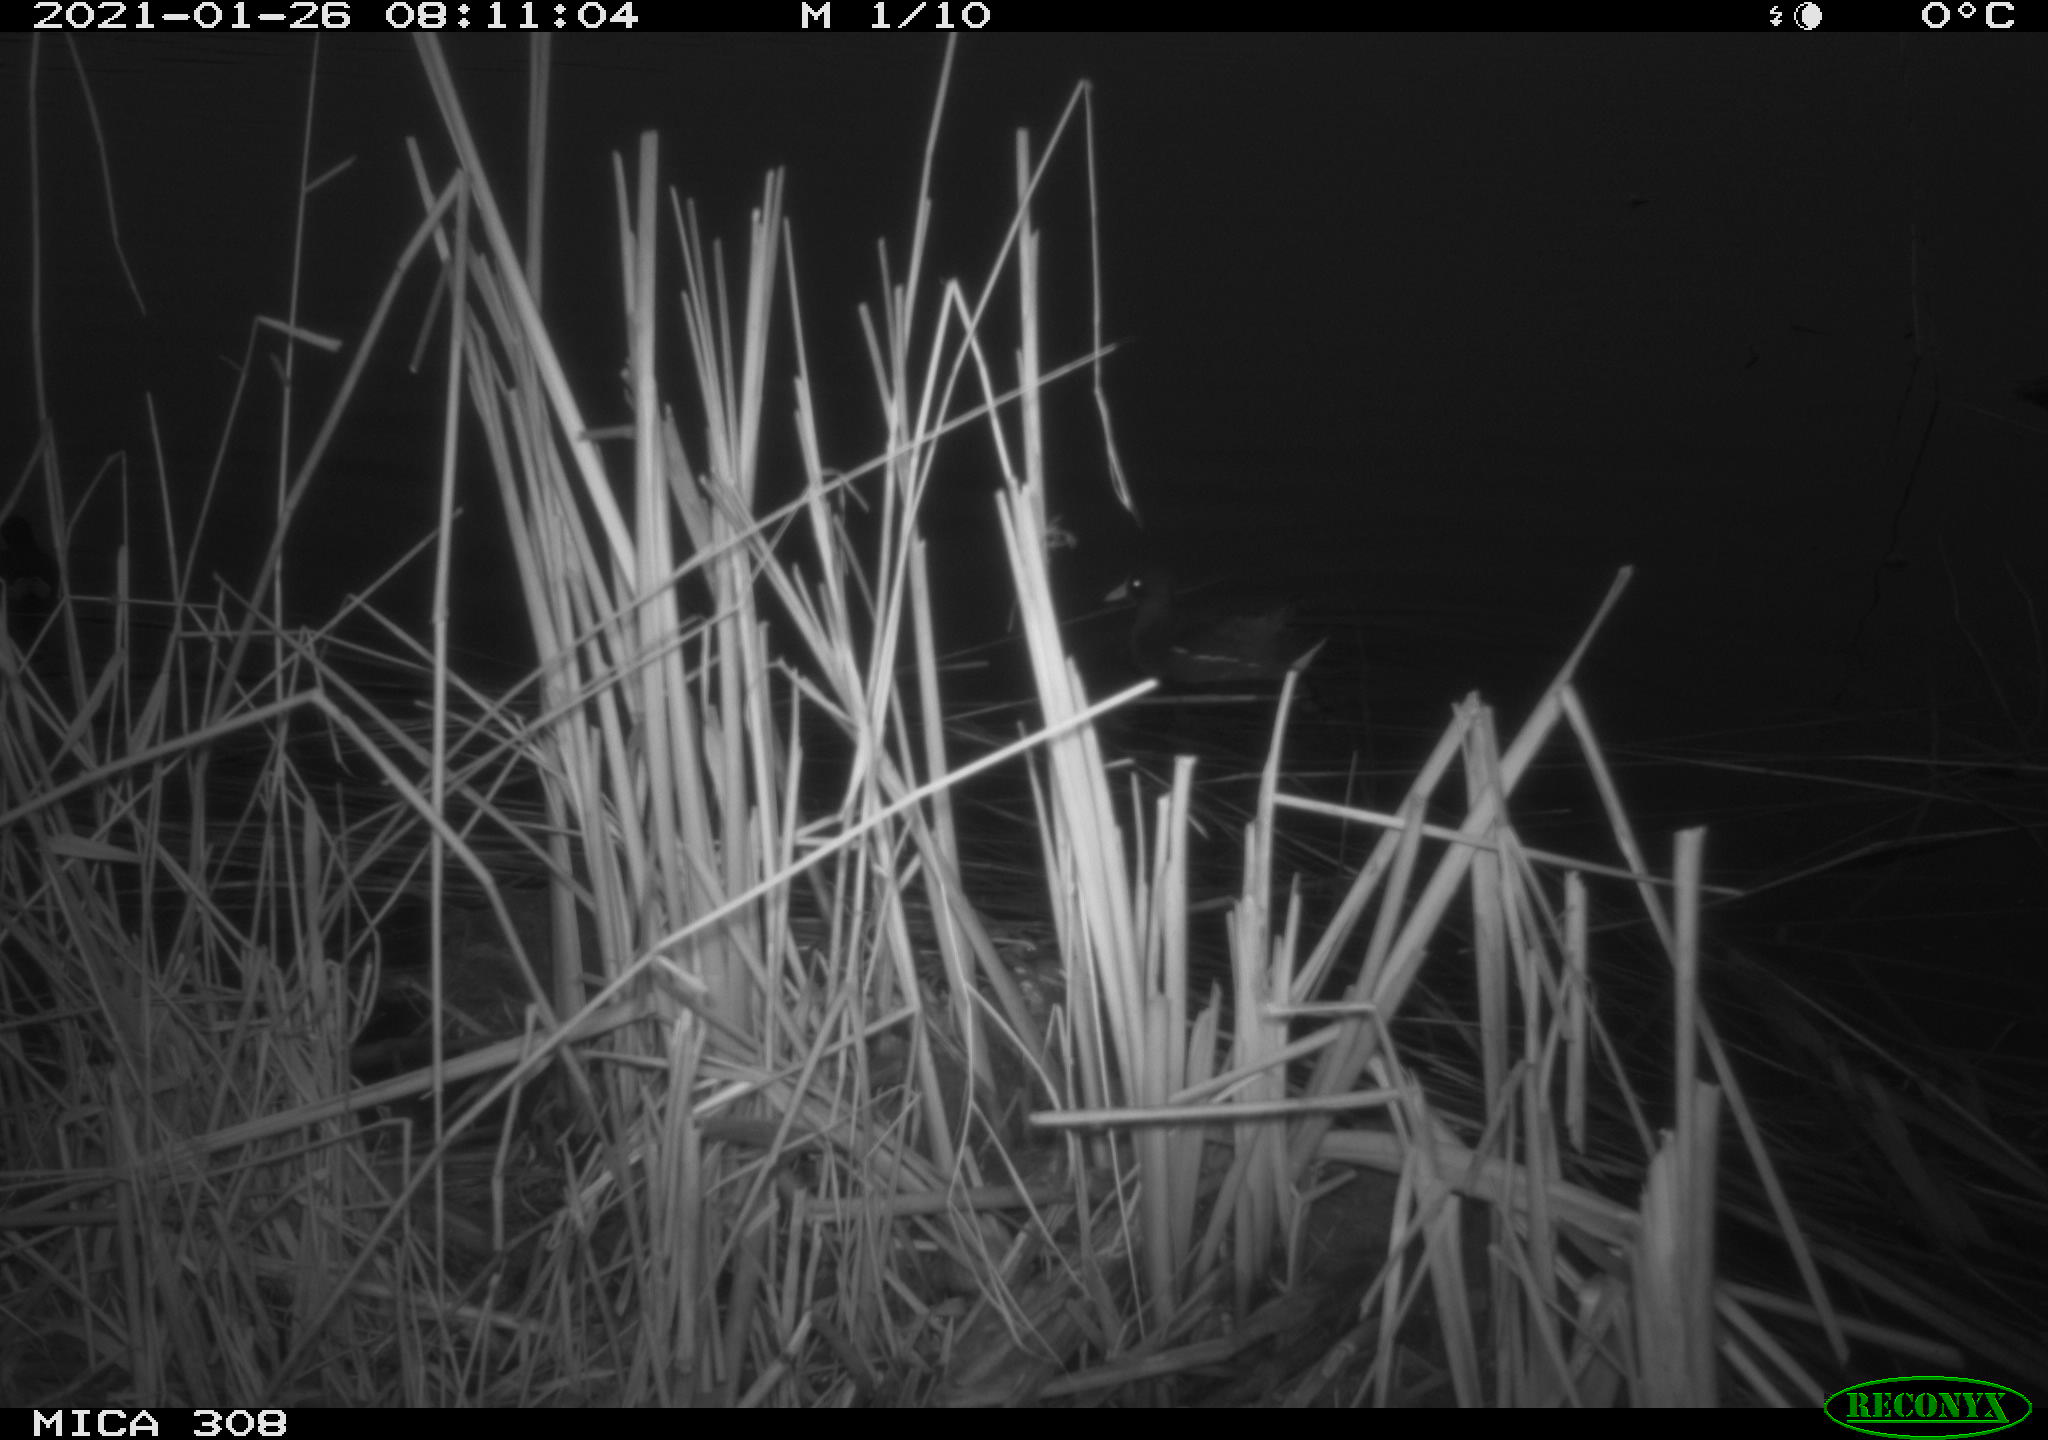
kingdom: Animalia
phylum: Chordata
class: Aves
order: Gruiformes
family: Rallidae
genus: Gallinula
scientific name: Gallinula chloropus
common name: Common moorhen
